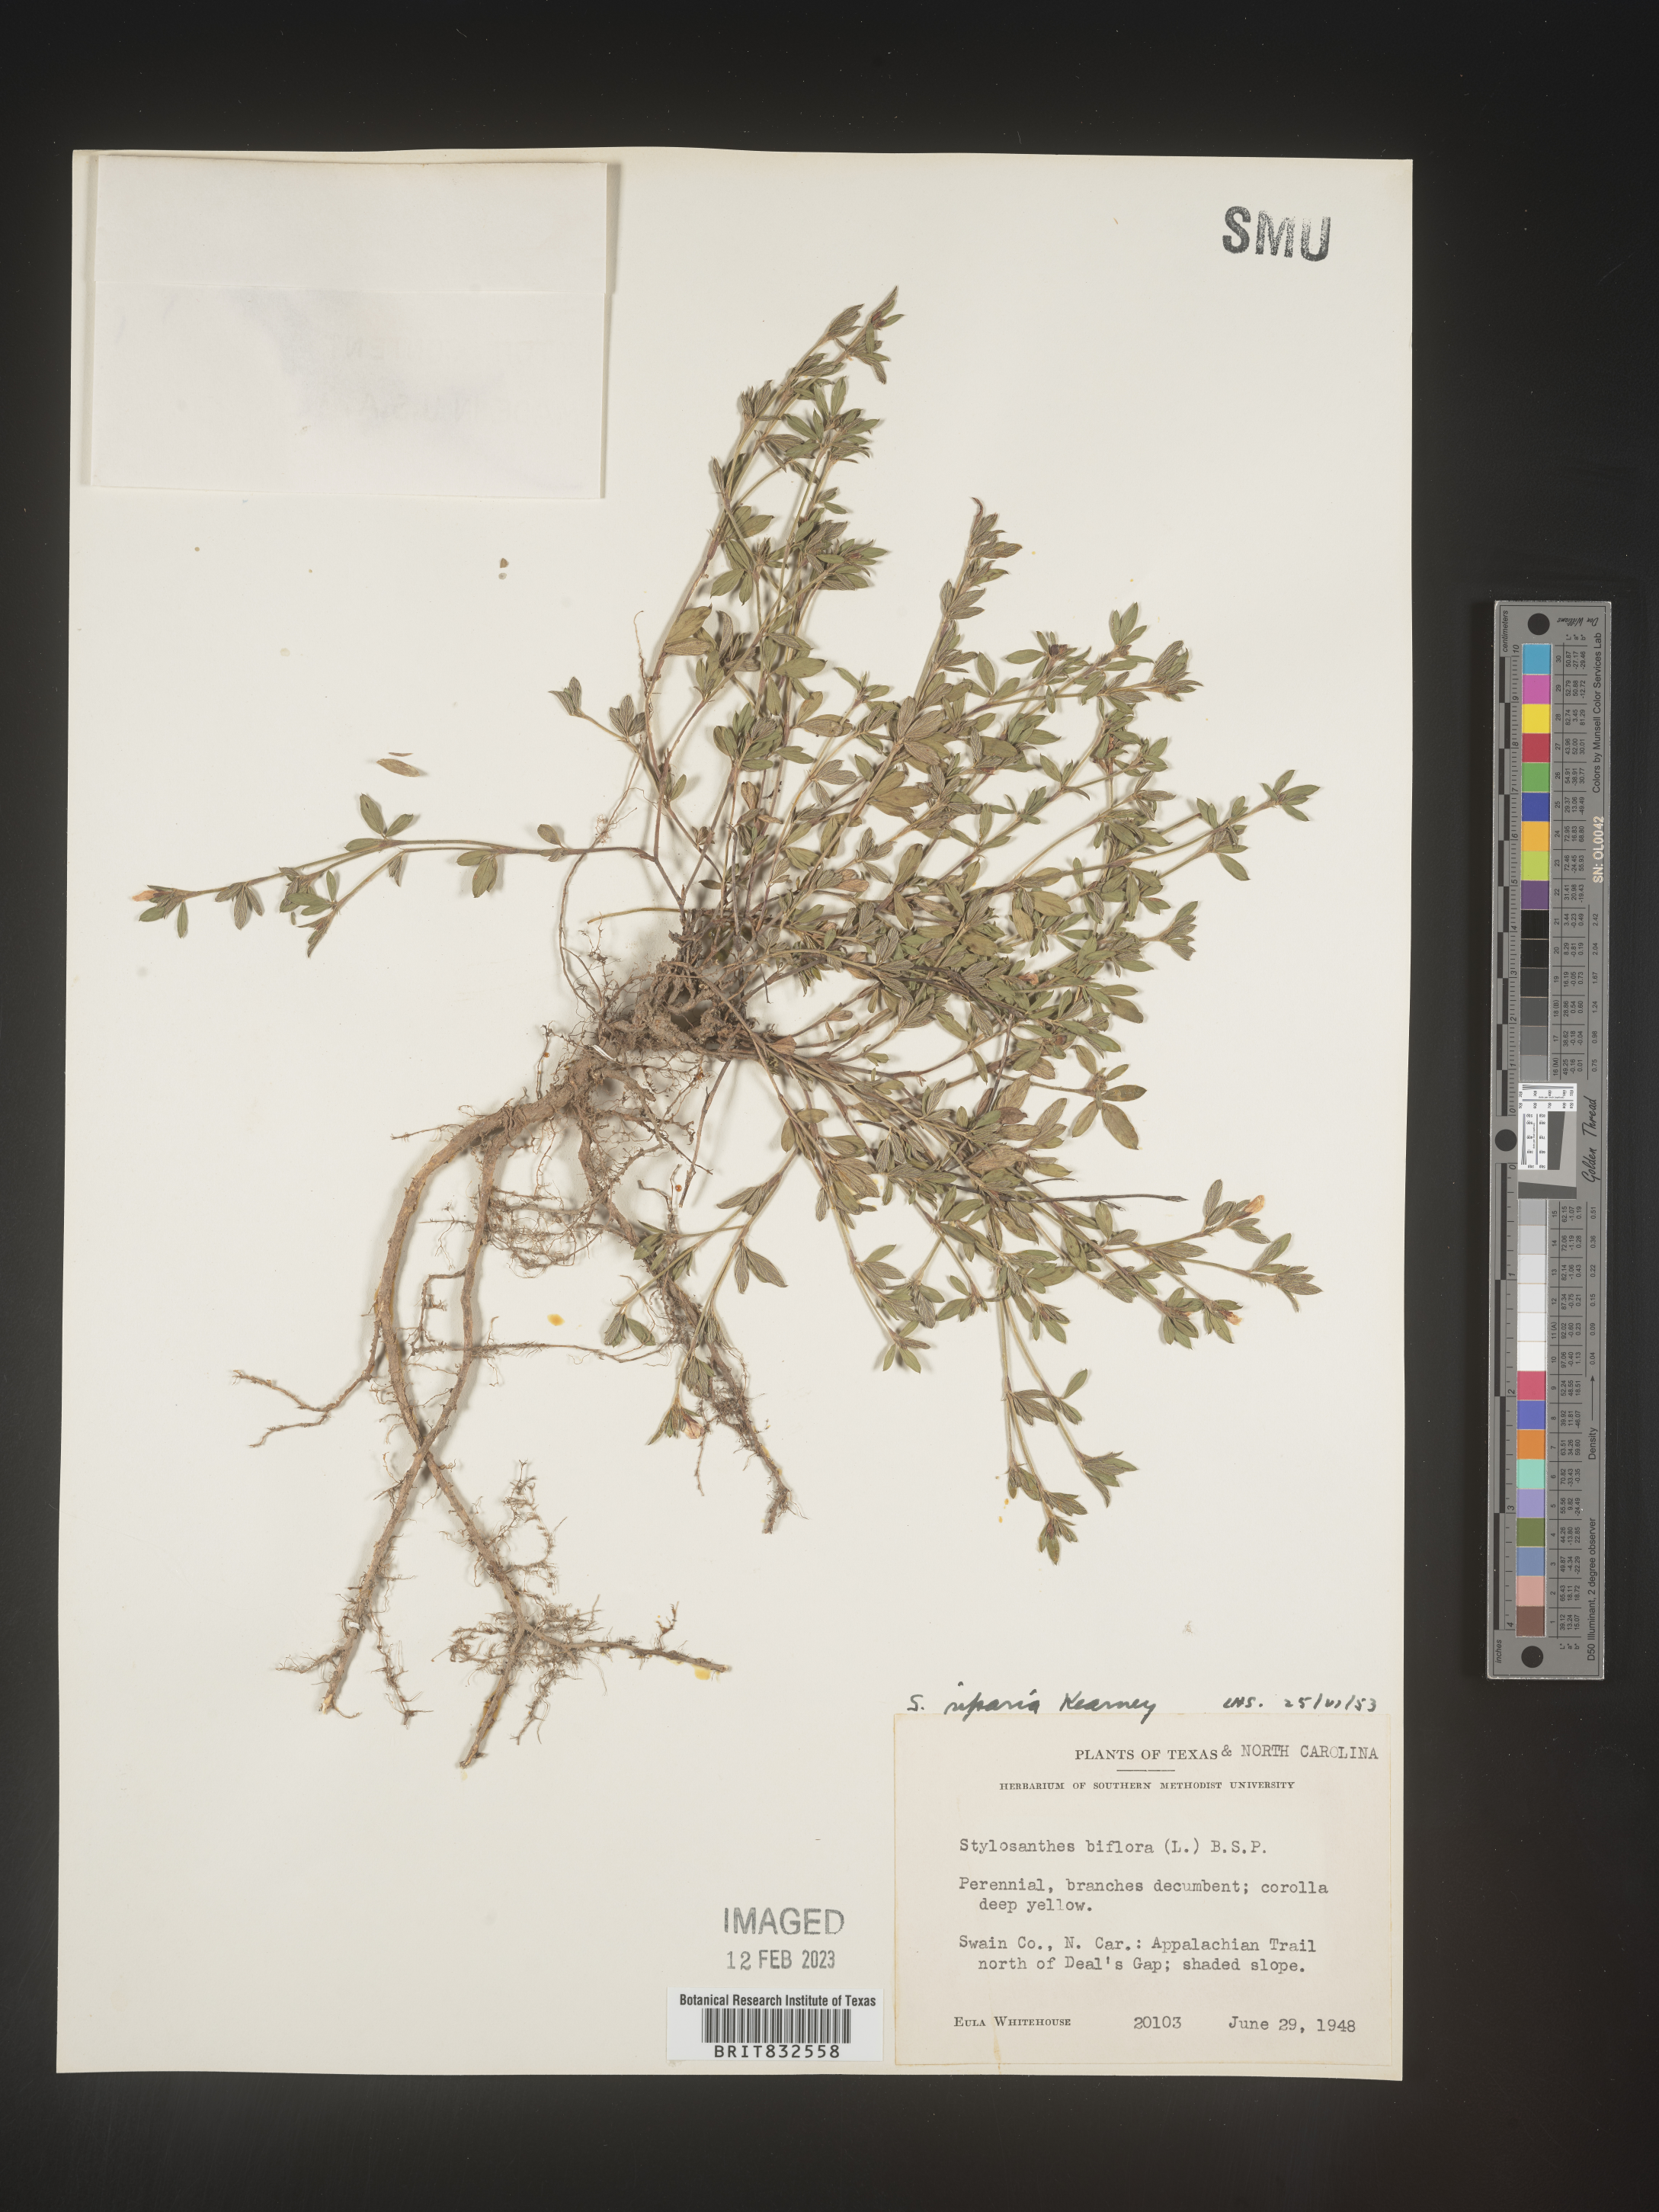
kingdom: Plantae
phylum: Tracheophyta
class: Magnoliopsida
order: Fabales
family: Fabaceae
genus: Stylosanthes
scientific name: Stylosanthes
